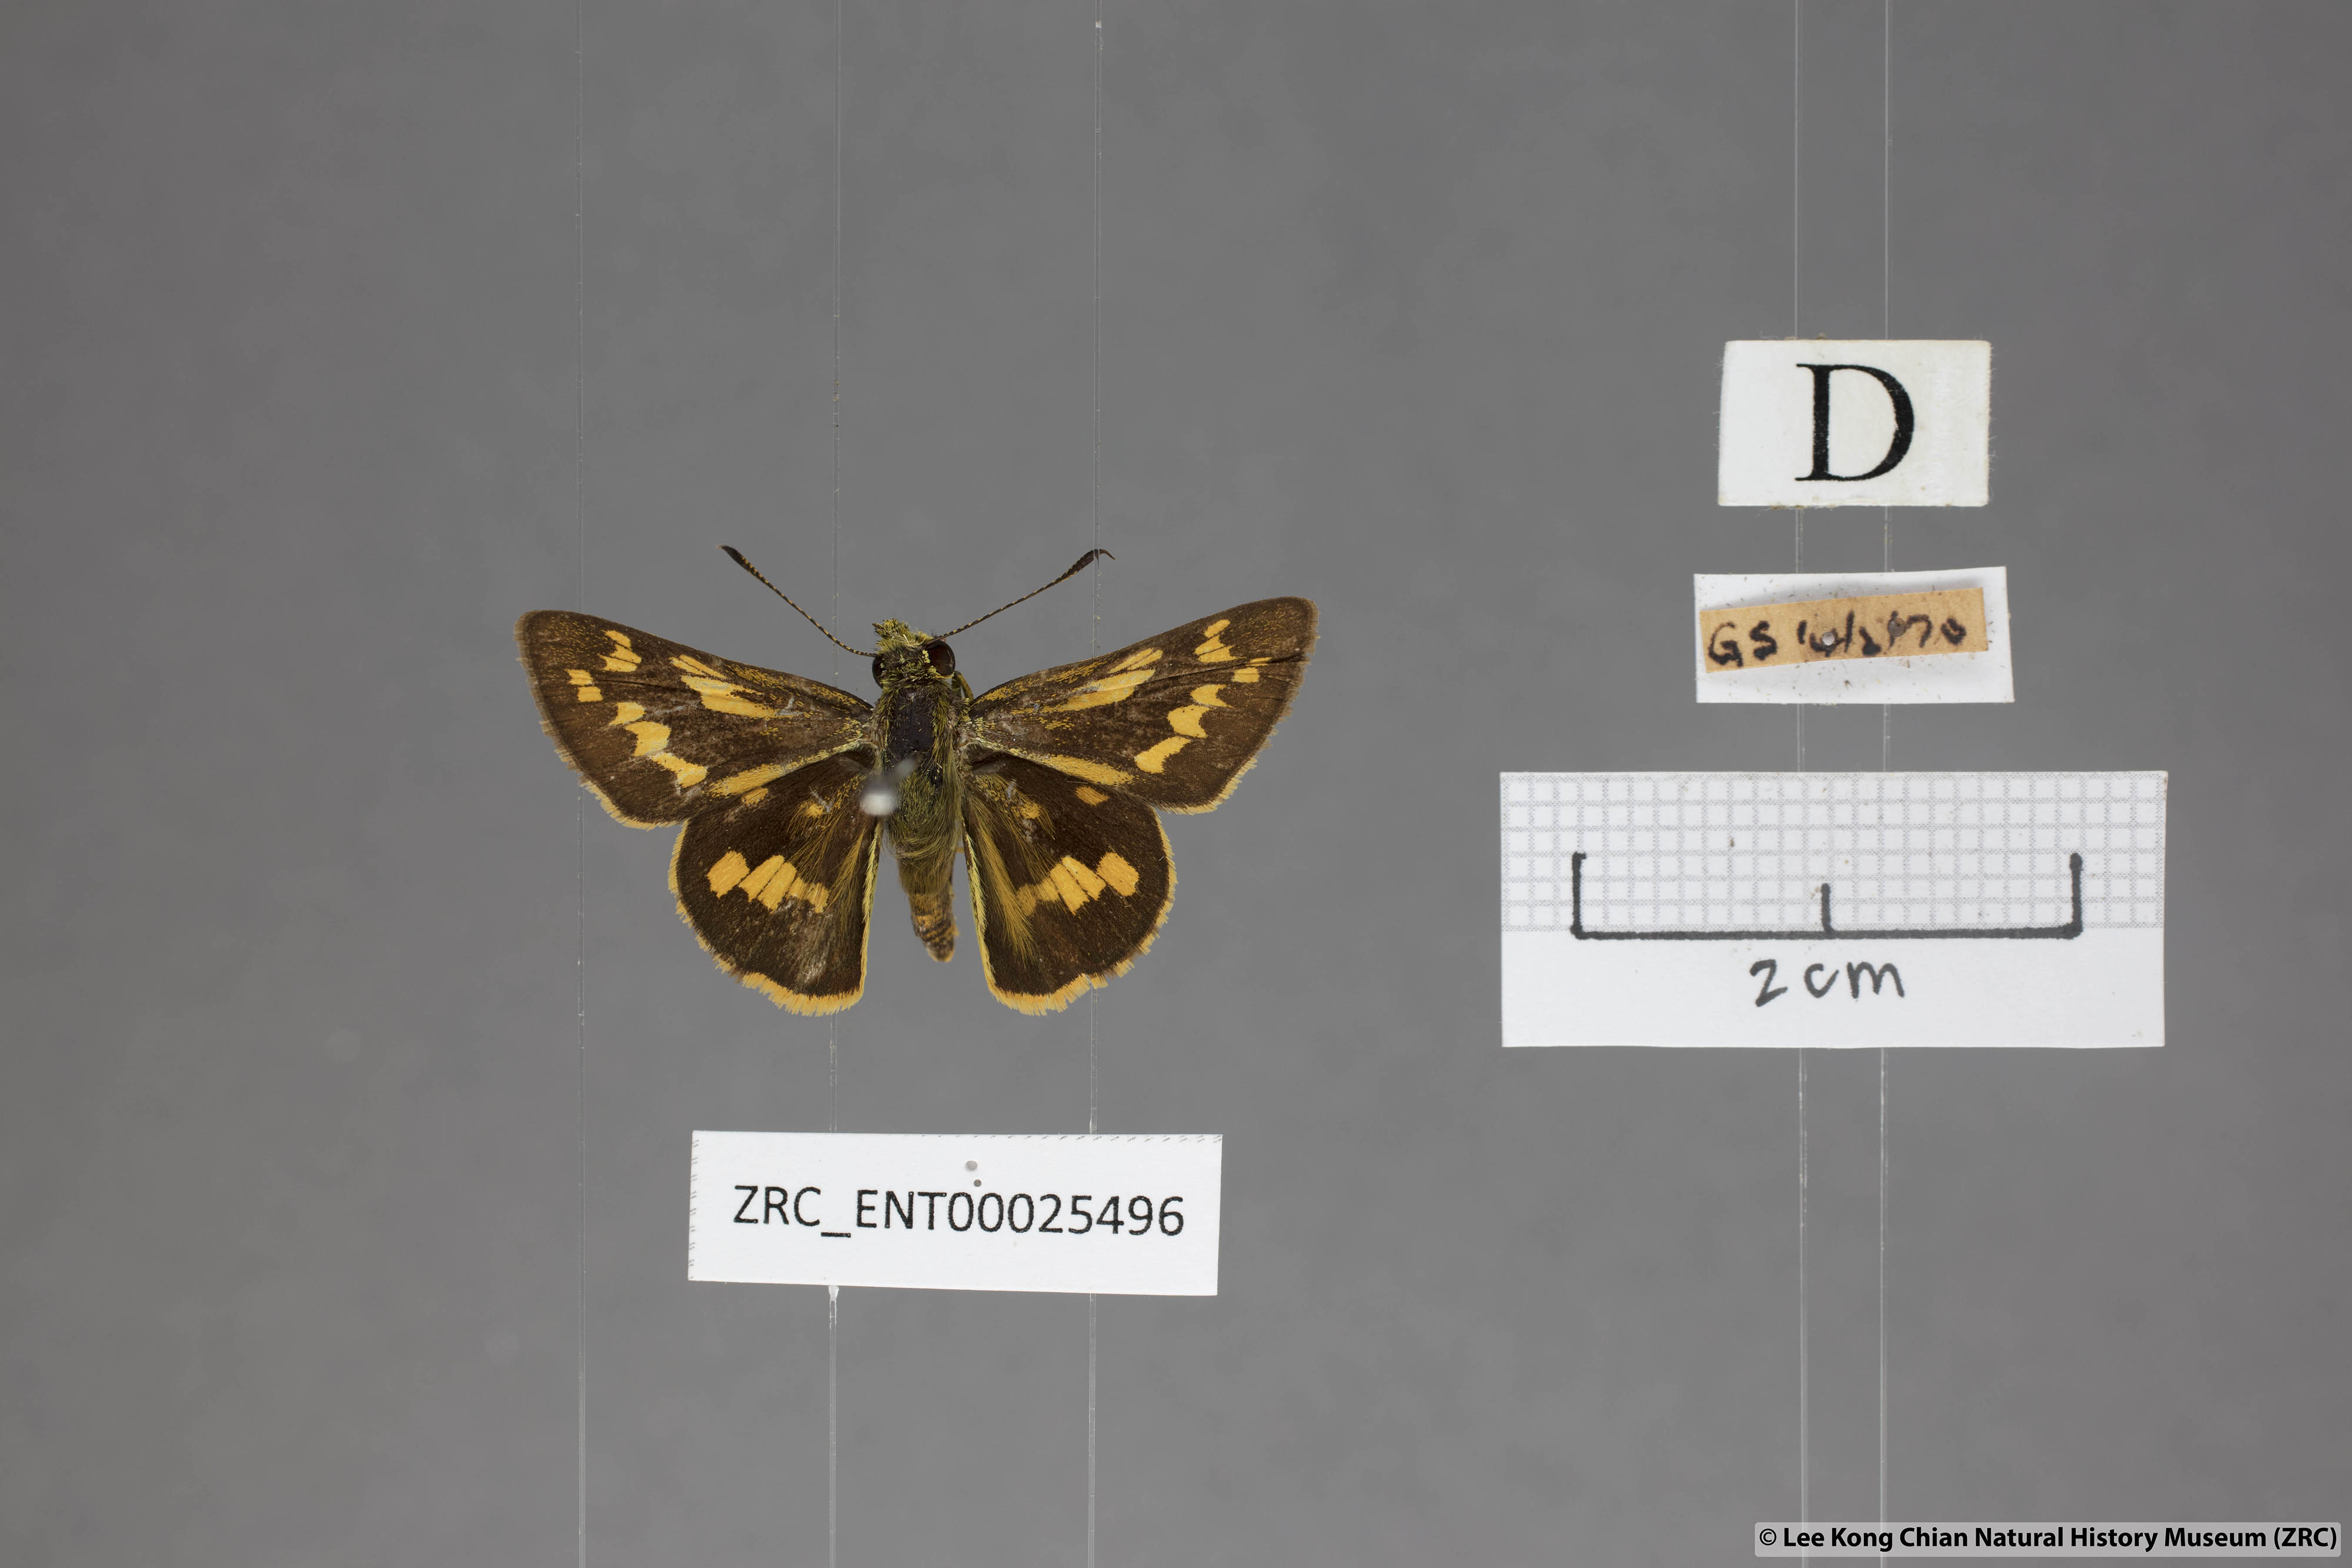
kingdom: Animalia
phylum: Arthropoda
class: Insecta
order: Lepidoptera
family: Hesperiidae
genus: Potanthus
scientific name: Potanthus trachala
